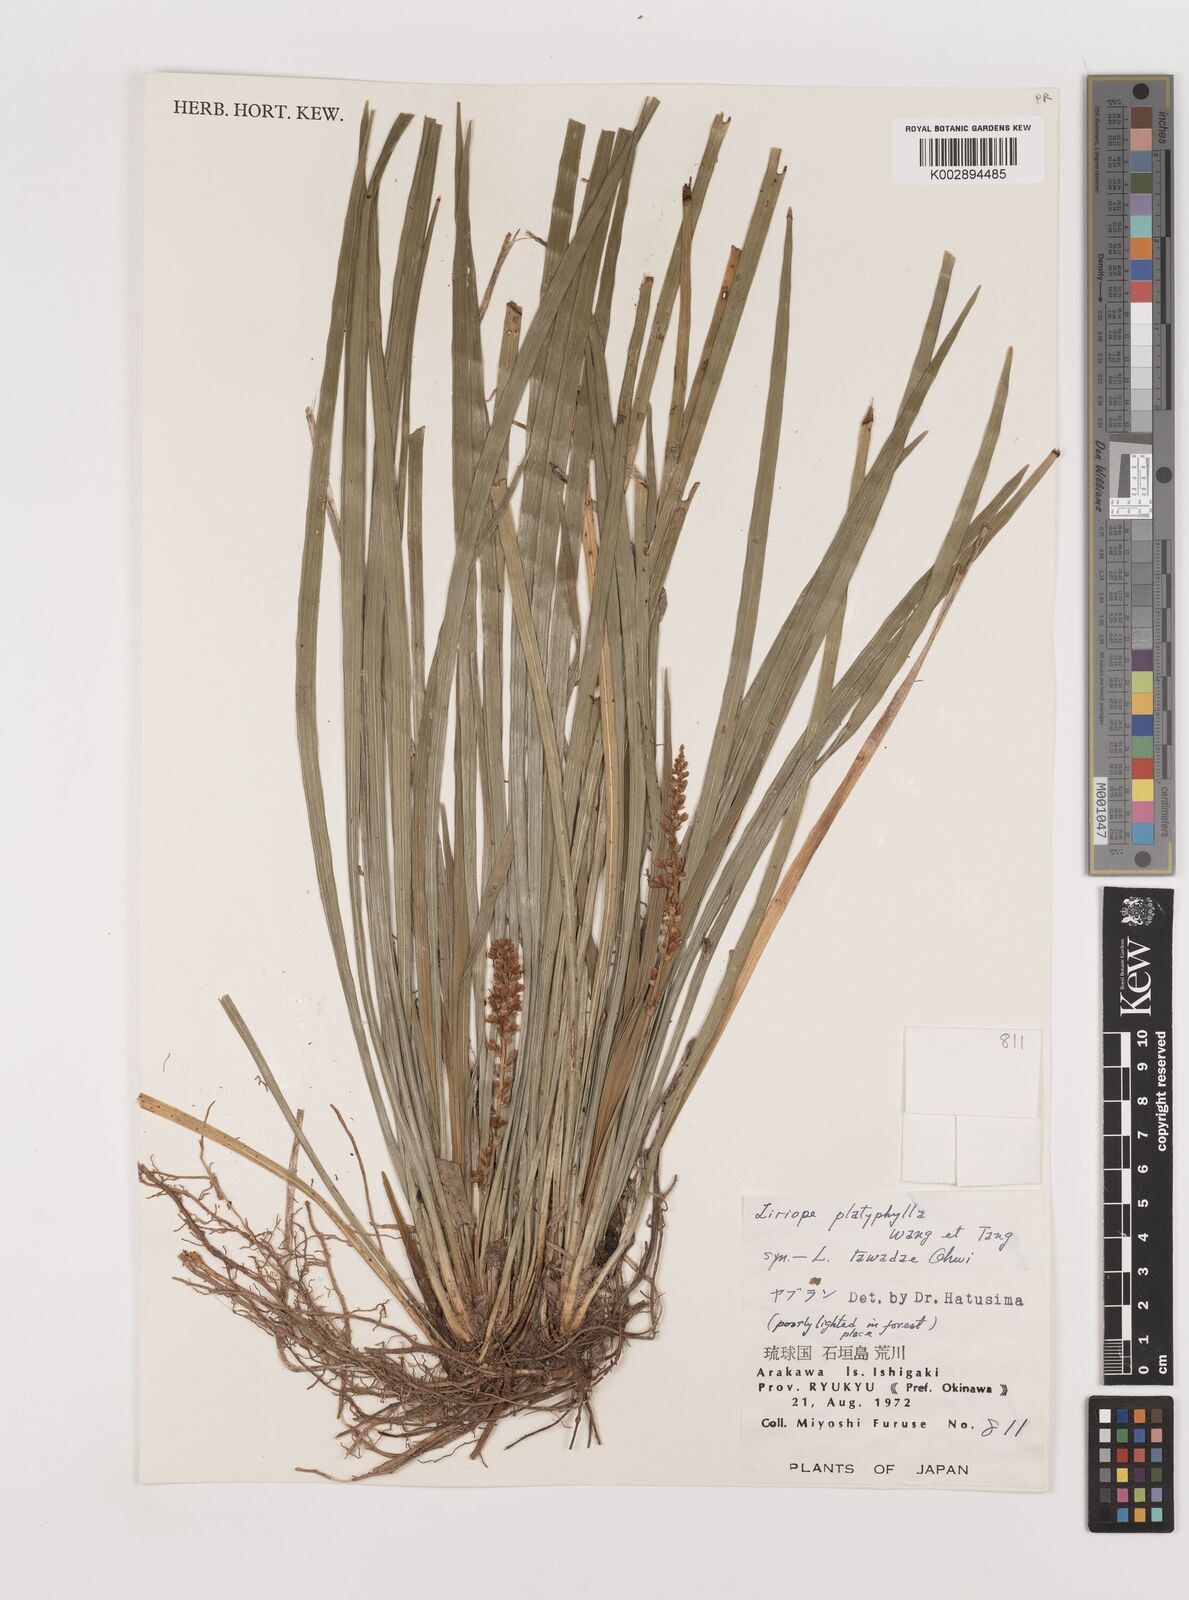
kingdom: Plantae
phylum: Tracheophyta
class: Liliopsida
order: Asparagales
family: Asparagaceae
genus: Liriope
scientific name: Liriope muscari
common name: Big blue lilyturf
